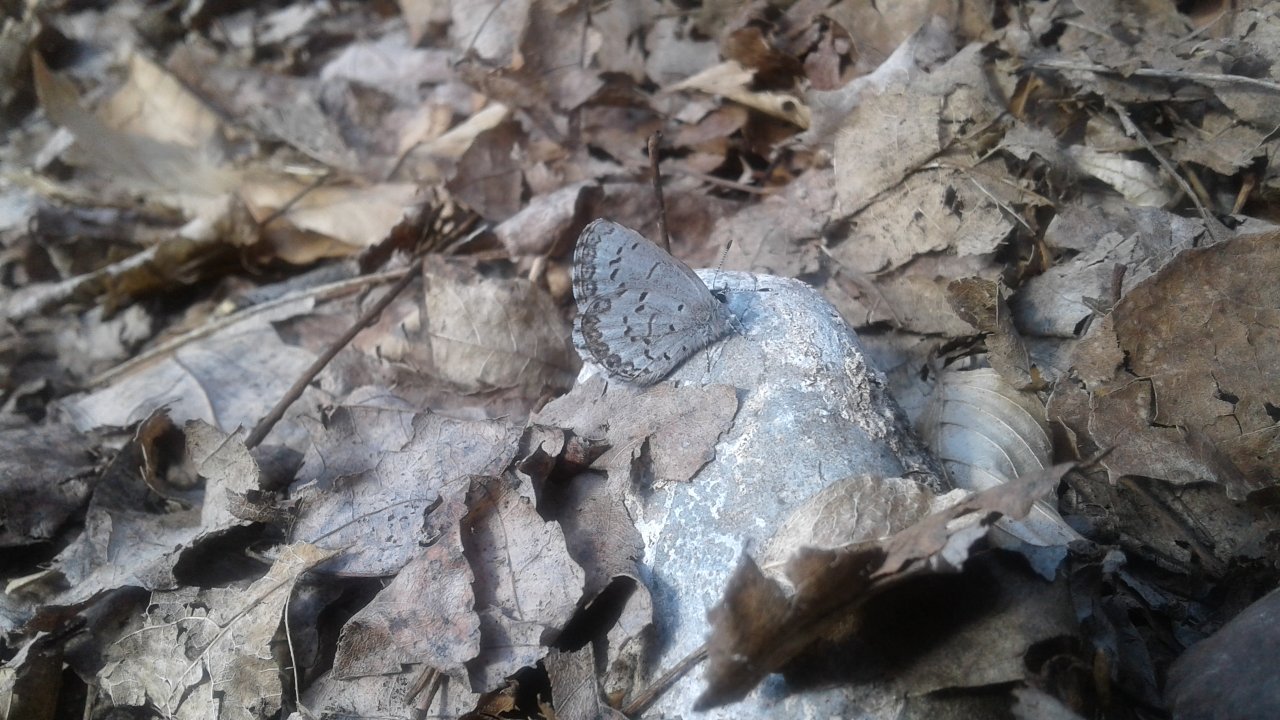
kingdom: Animalia
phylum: Arthropoda
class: Insecta
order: Lepidoptera
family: Lycaenidae
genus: Celastrina
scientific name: Celastrina lucia
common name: Northern Spring Azure
